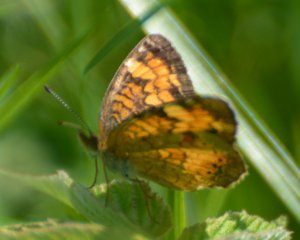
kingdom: Animalia
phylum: Arthropoda
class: Insecta
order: Lepidoptera
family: Nymphalidae
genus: Phyciodes
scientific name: Phyciodes tharos
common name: Northern Crescent
